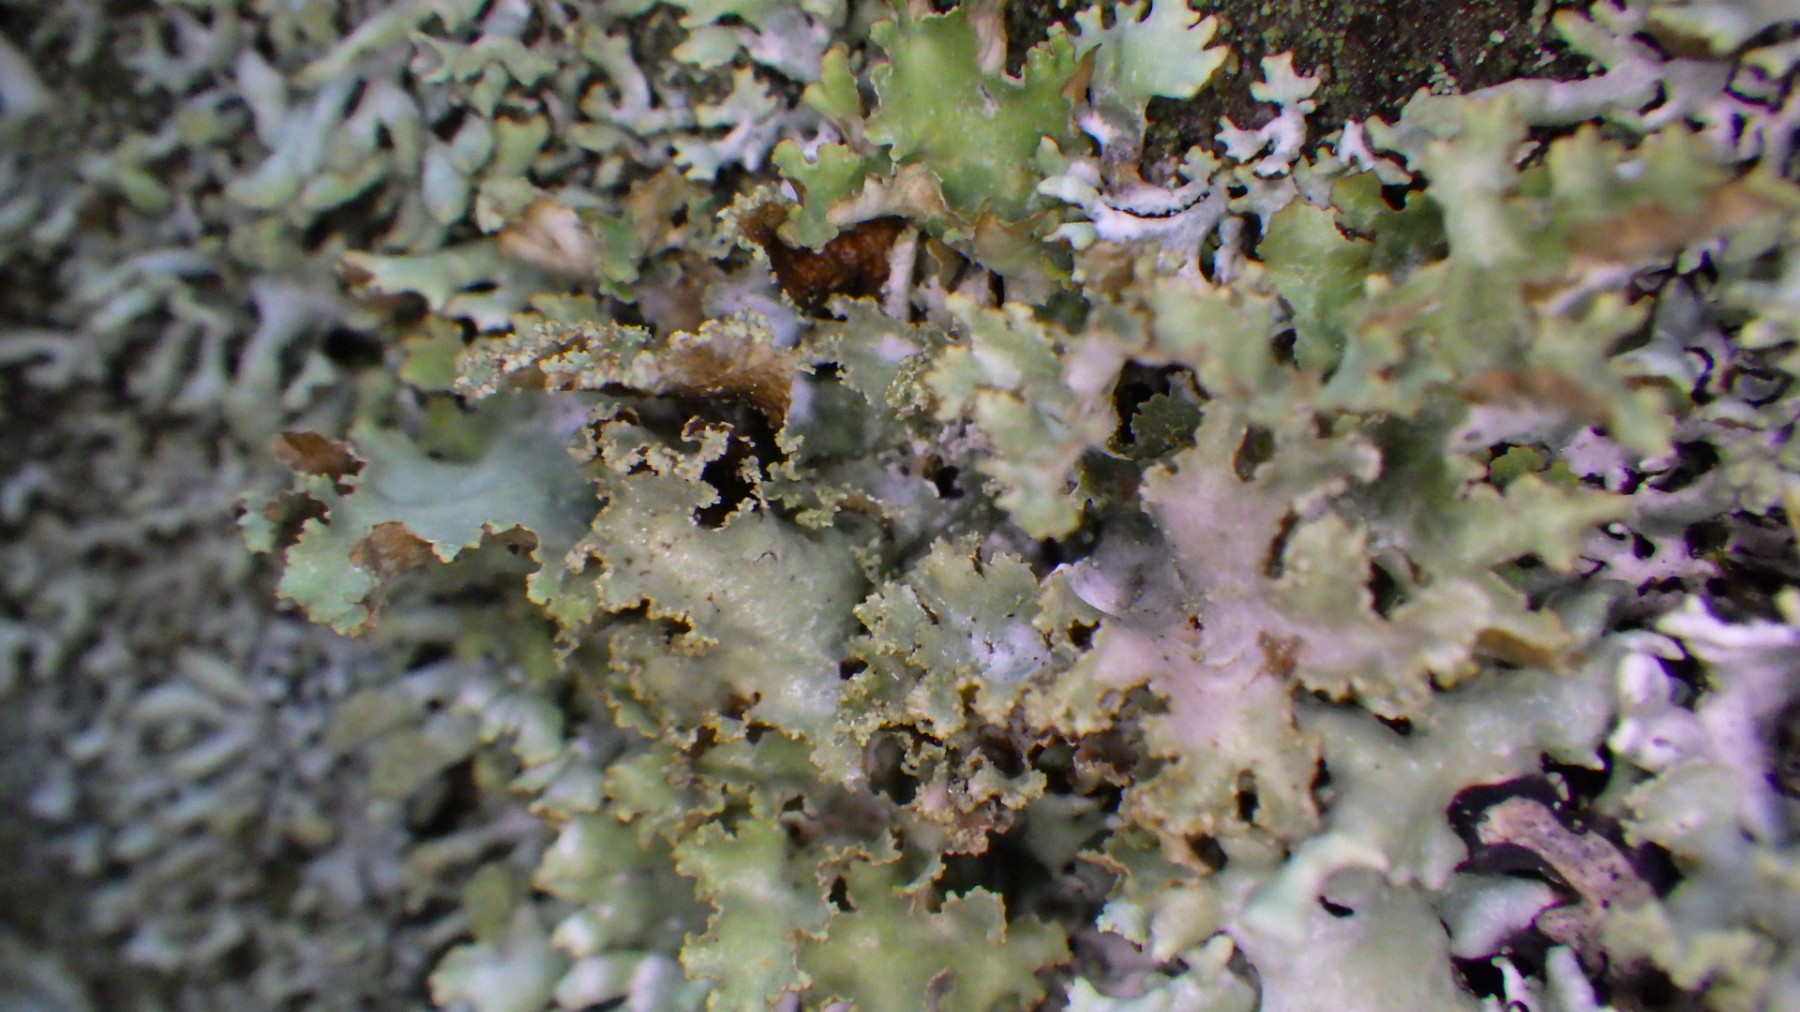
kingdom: Fungi
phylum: Ascomycota
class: Lecanoromycetes
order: Lecanorales
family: Parmeliaceae
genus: Platismatia
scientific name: Platismatia glauca
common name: blågrå papirlav
